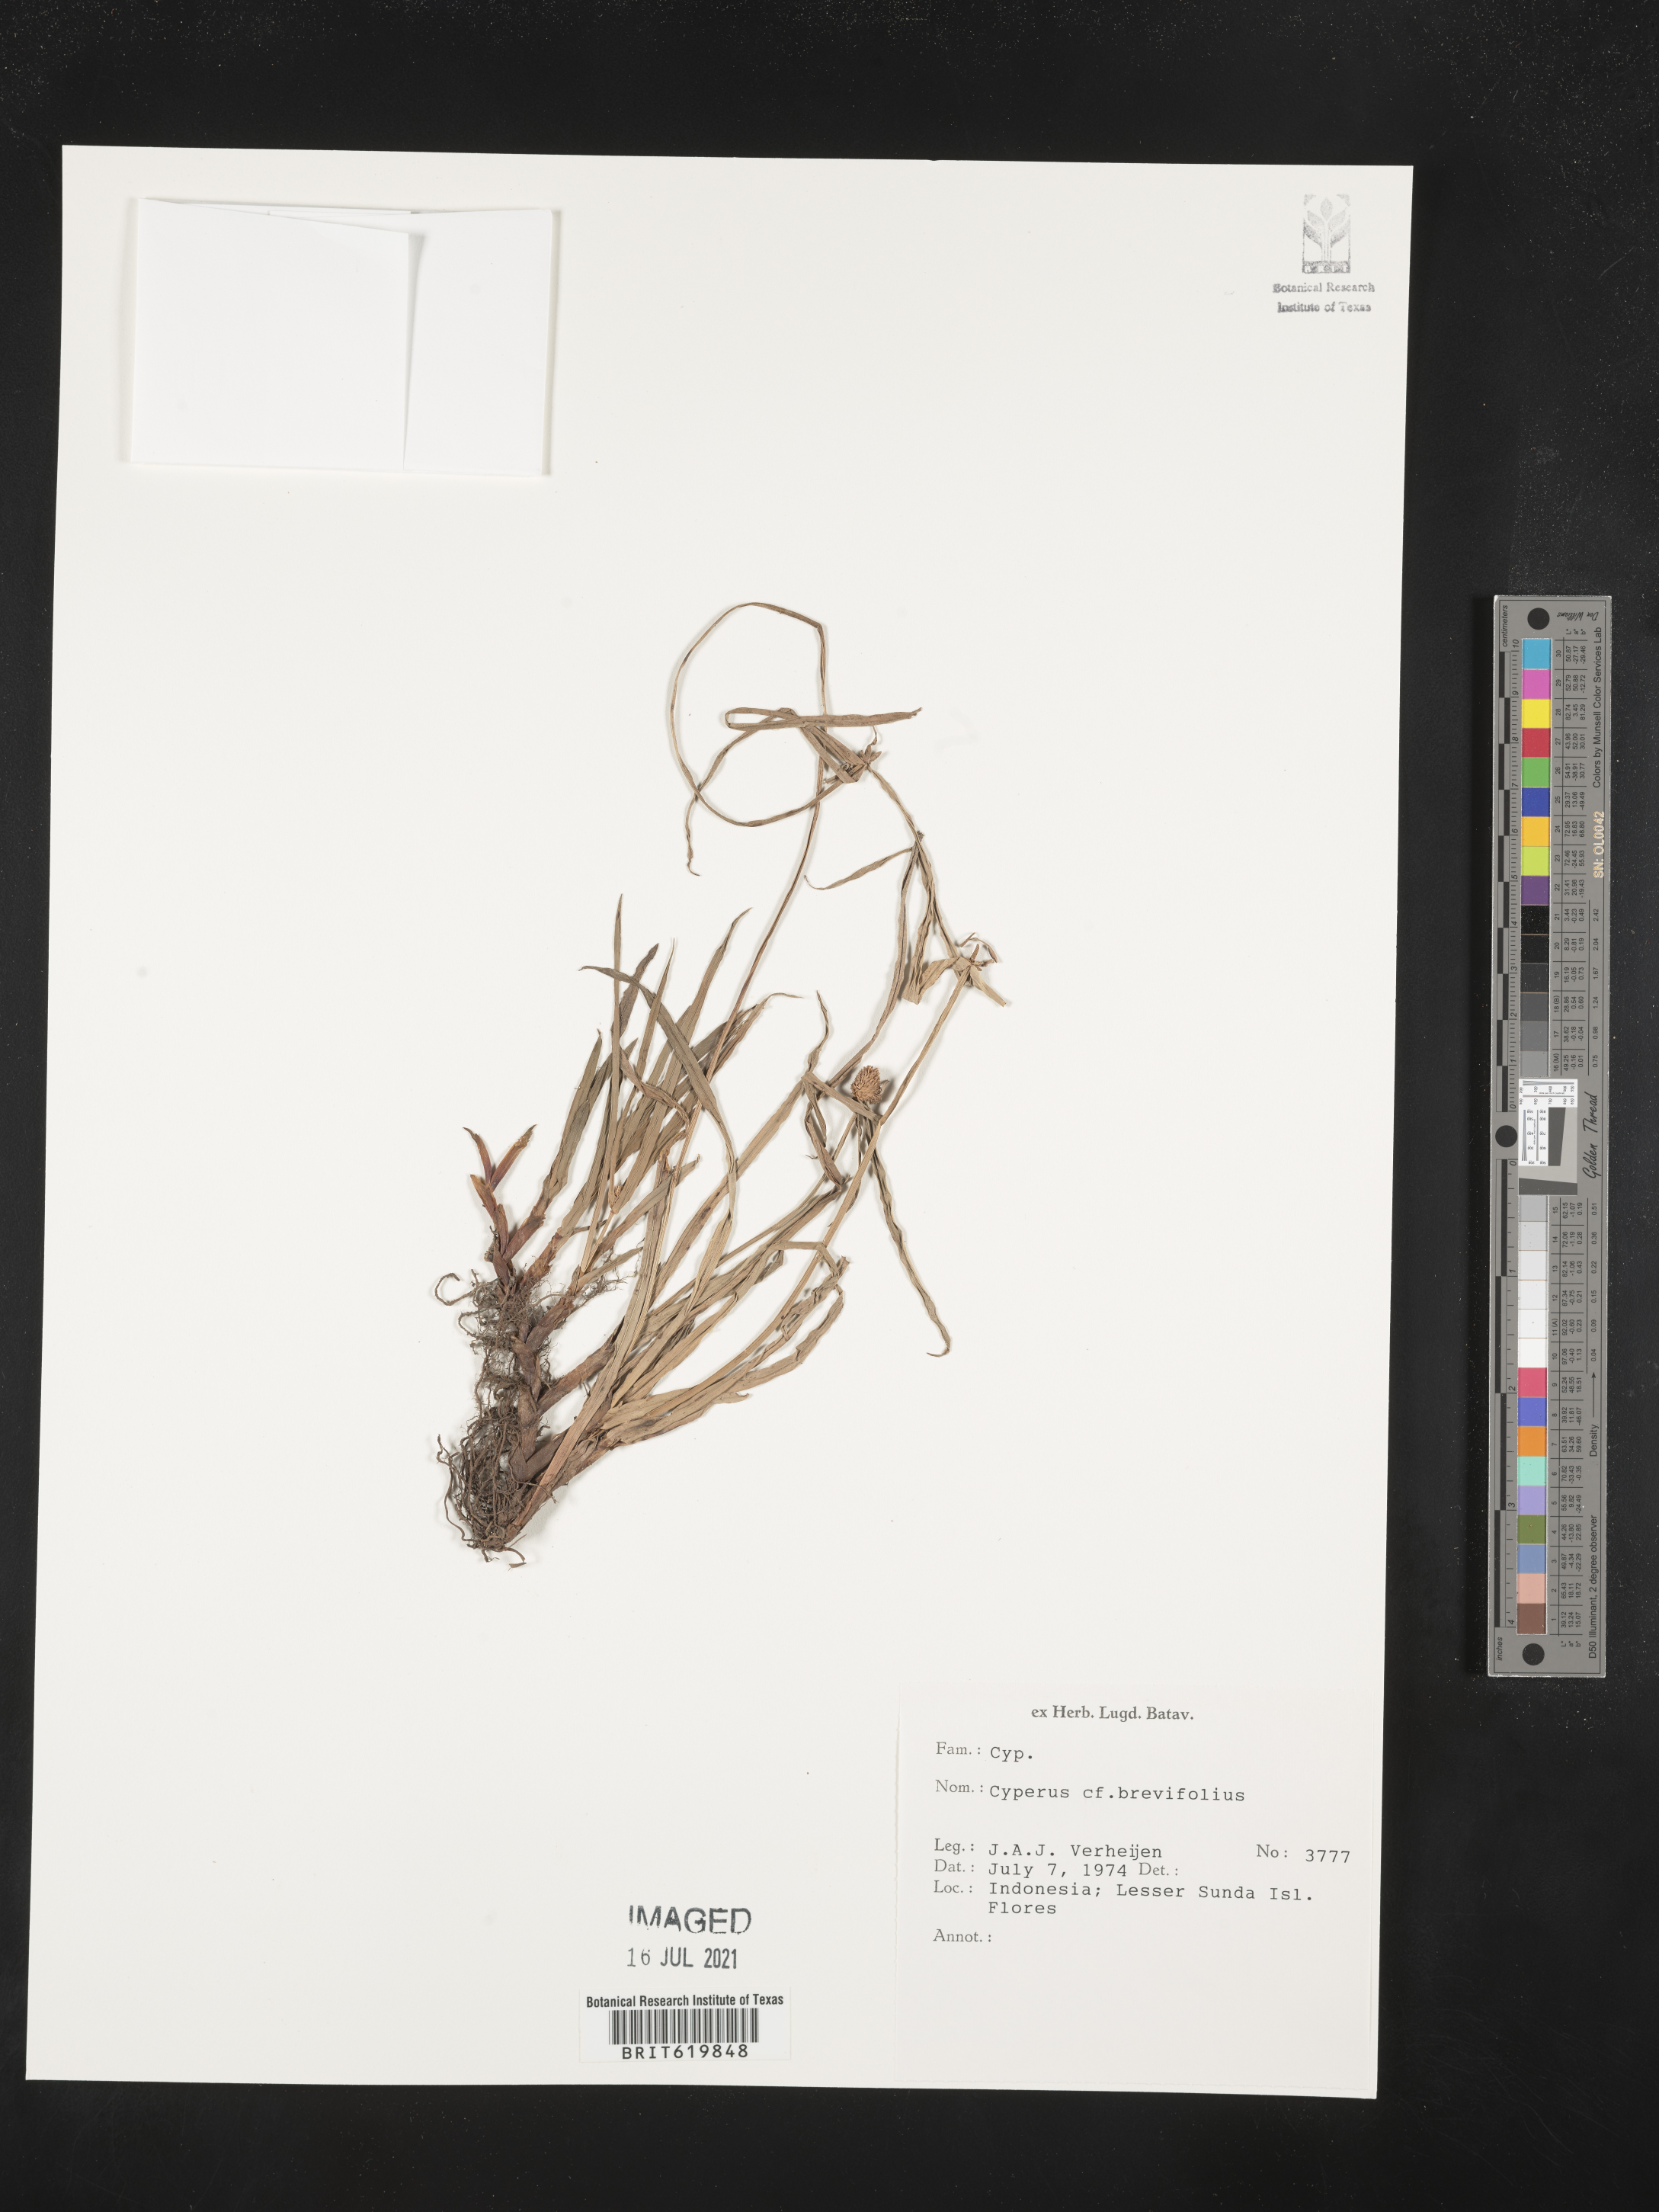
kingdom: Plantae
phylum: Tracheophyta
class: Liliopsida
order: Poales
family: Cyperaceae
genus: Cyperus
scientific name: Cyperus brevifolius
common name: Globe kyllinga
